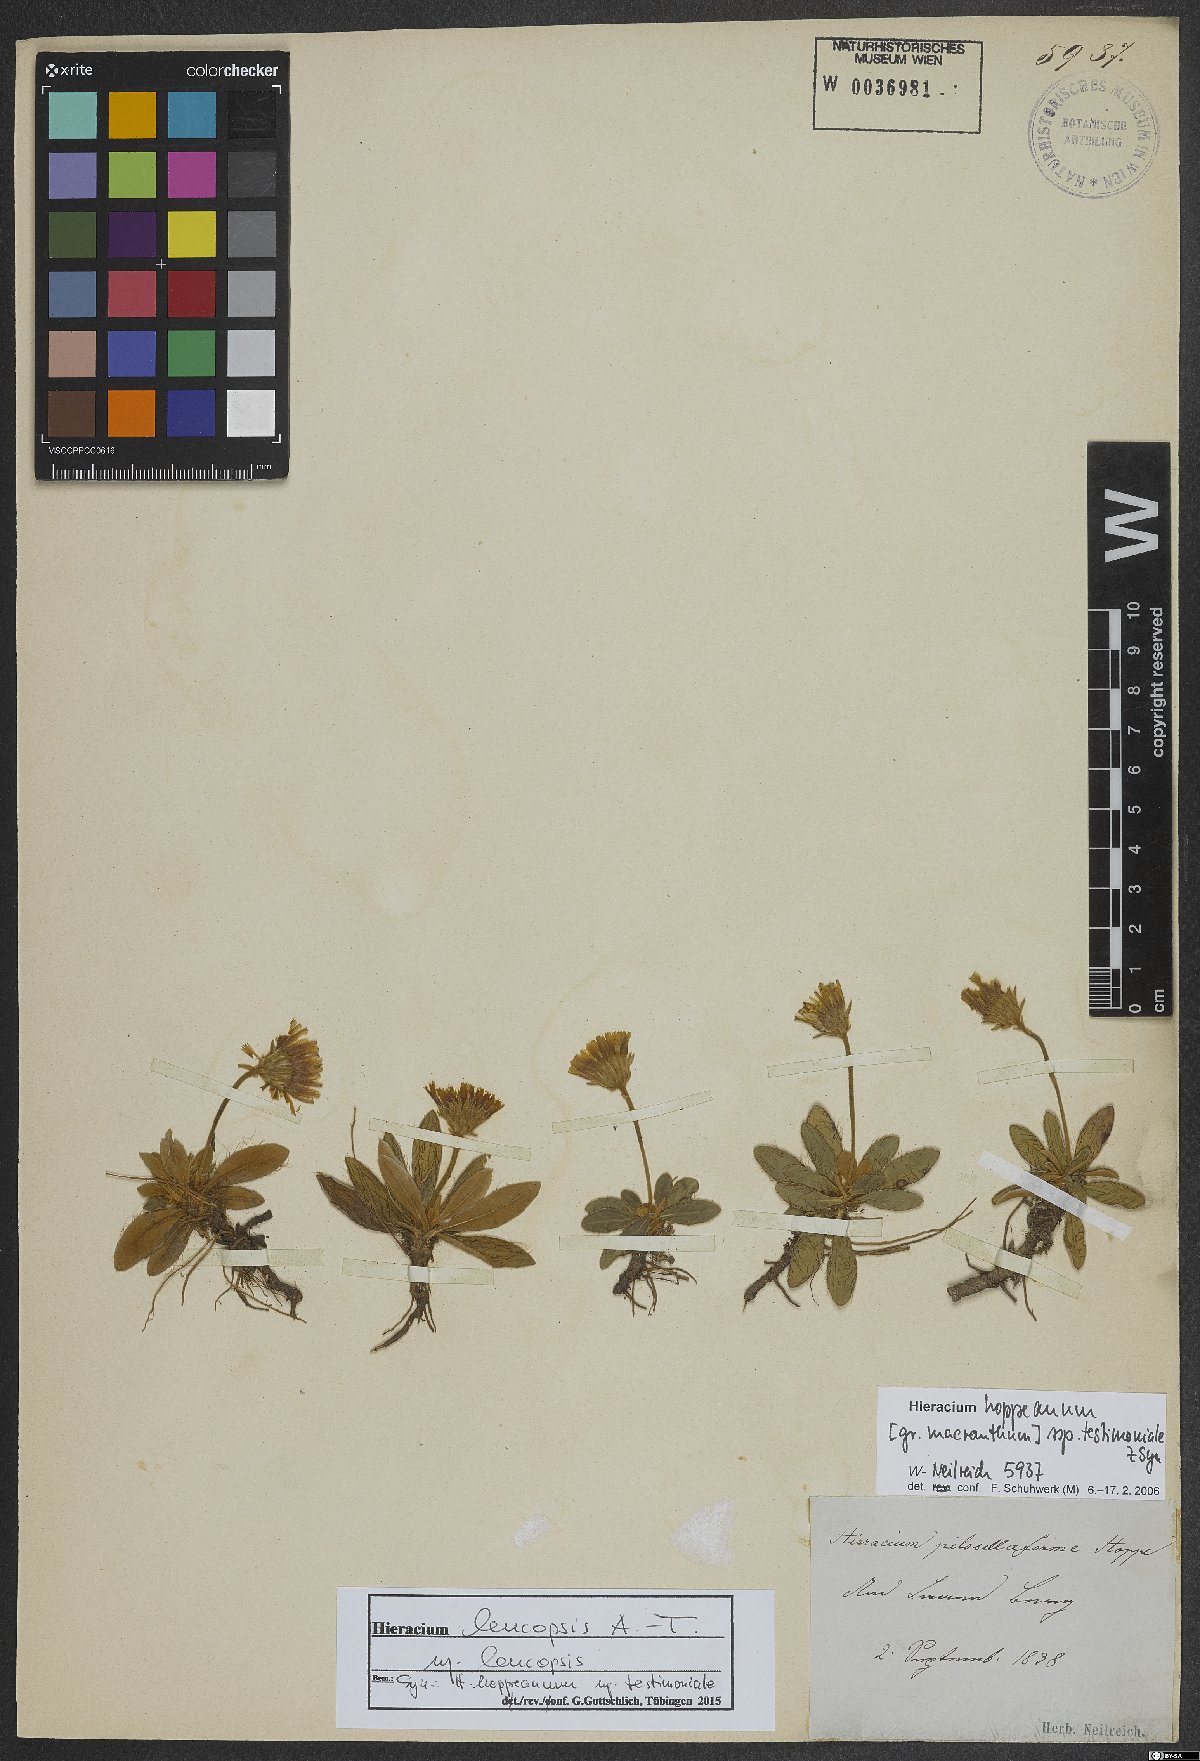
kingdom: Plantae
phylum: Tracheophyta
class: Magnoliopsida
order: Asterales
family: Asteraceae
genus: Hieracium
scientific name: Hieracium piliferum
